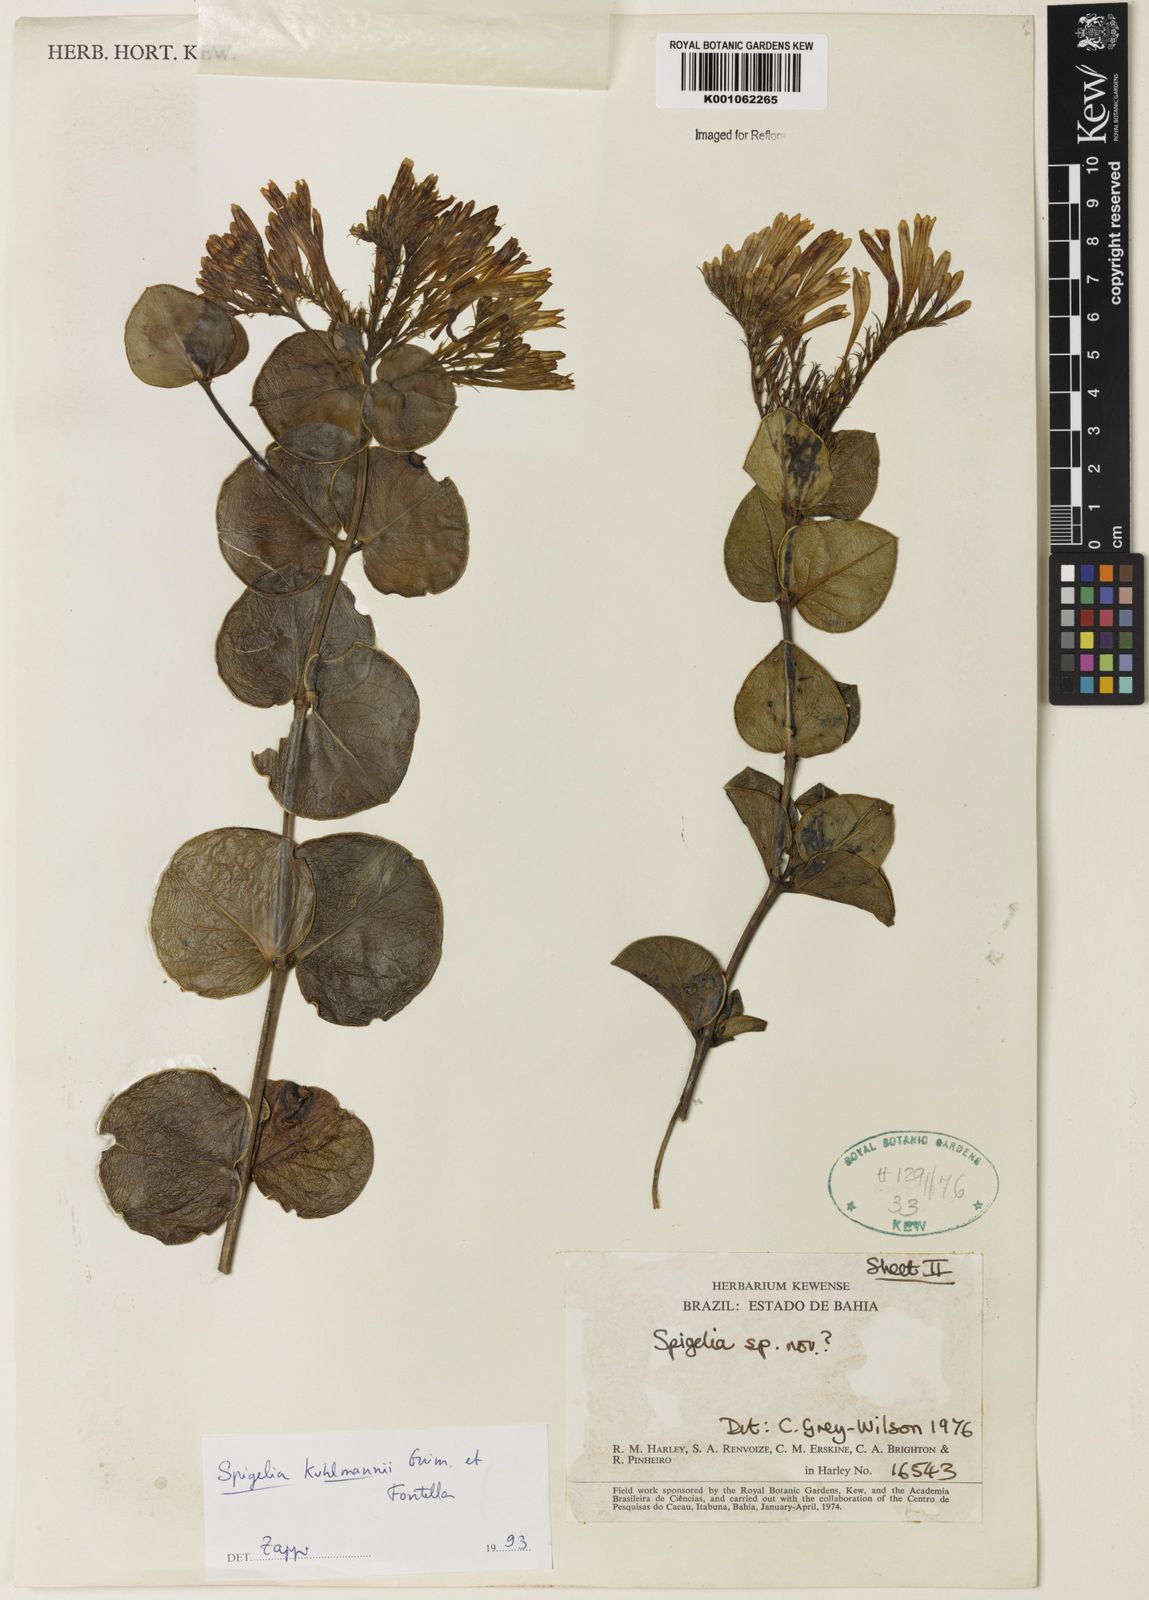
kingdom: Plantae
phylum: Tracheophyta
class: Magnoliopsida
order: Gentianales
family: Loganiaceae
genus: Spigelia
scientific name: Spigelia kuhlmannii
